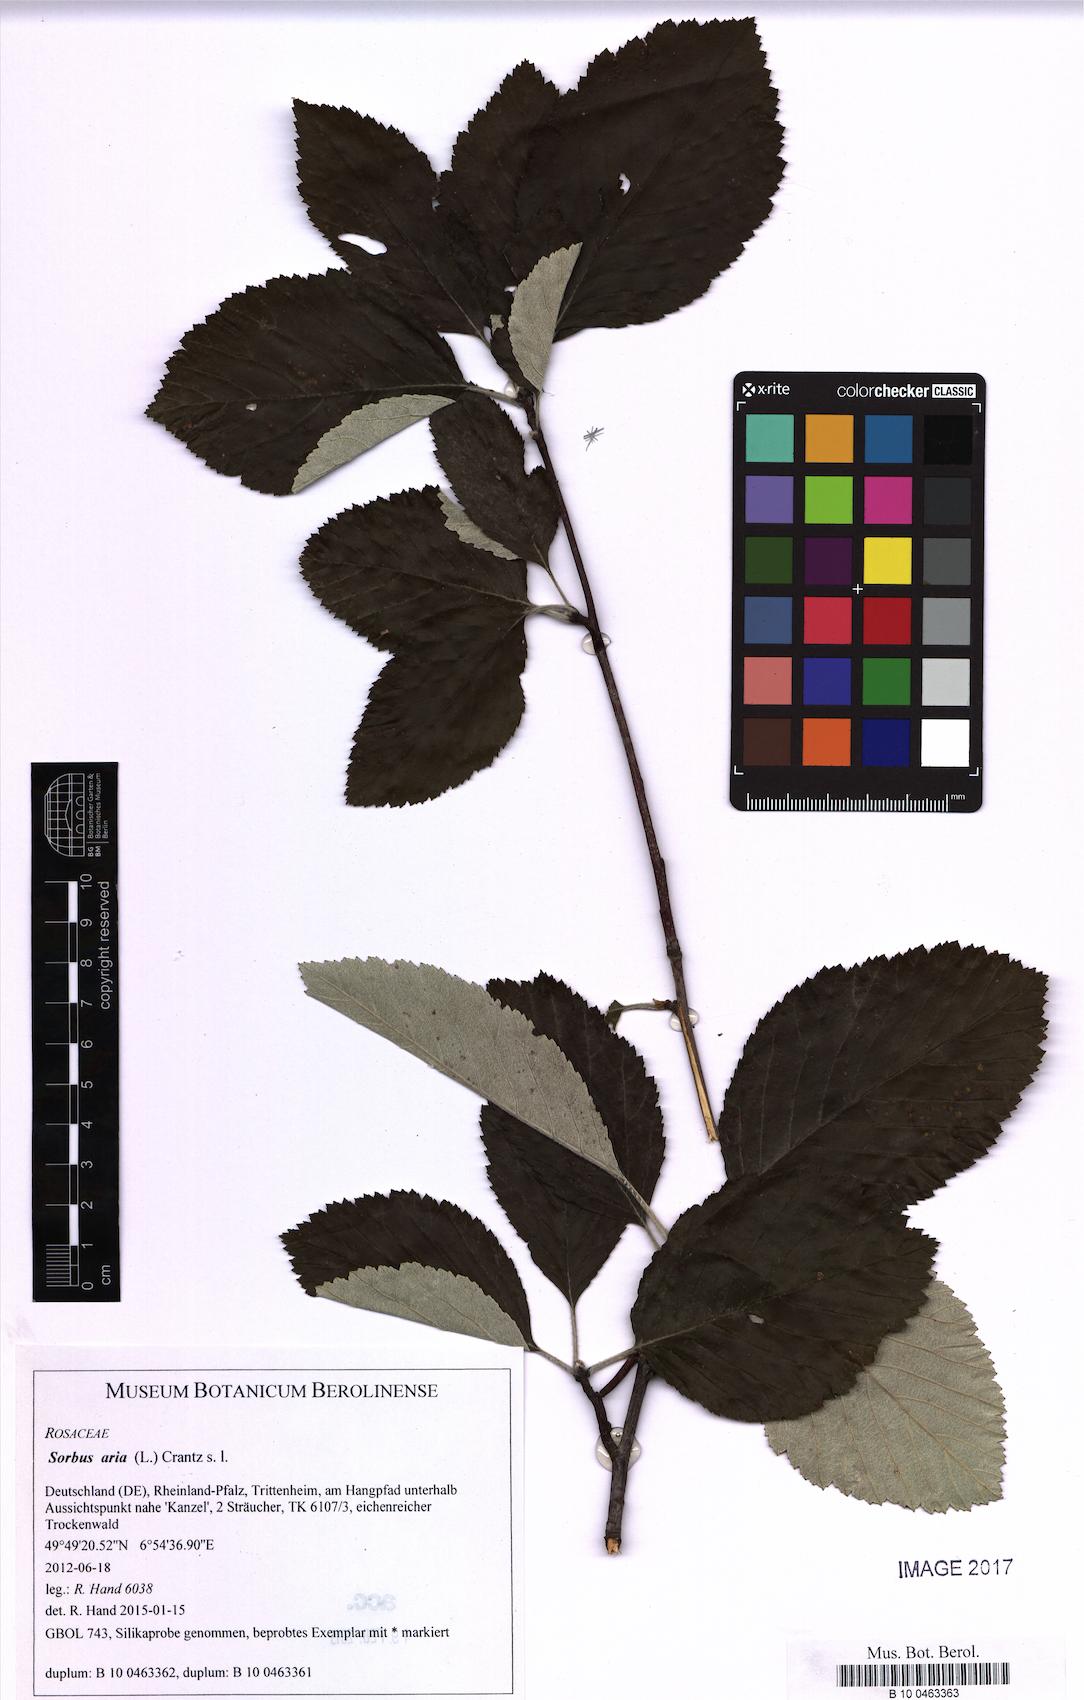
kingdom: Plantae
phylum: Tracheophyta
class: Magnoliopsida
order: Rosales
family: Rosaceae
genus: Aria
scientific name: Aria edulis
